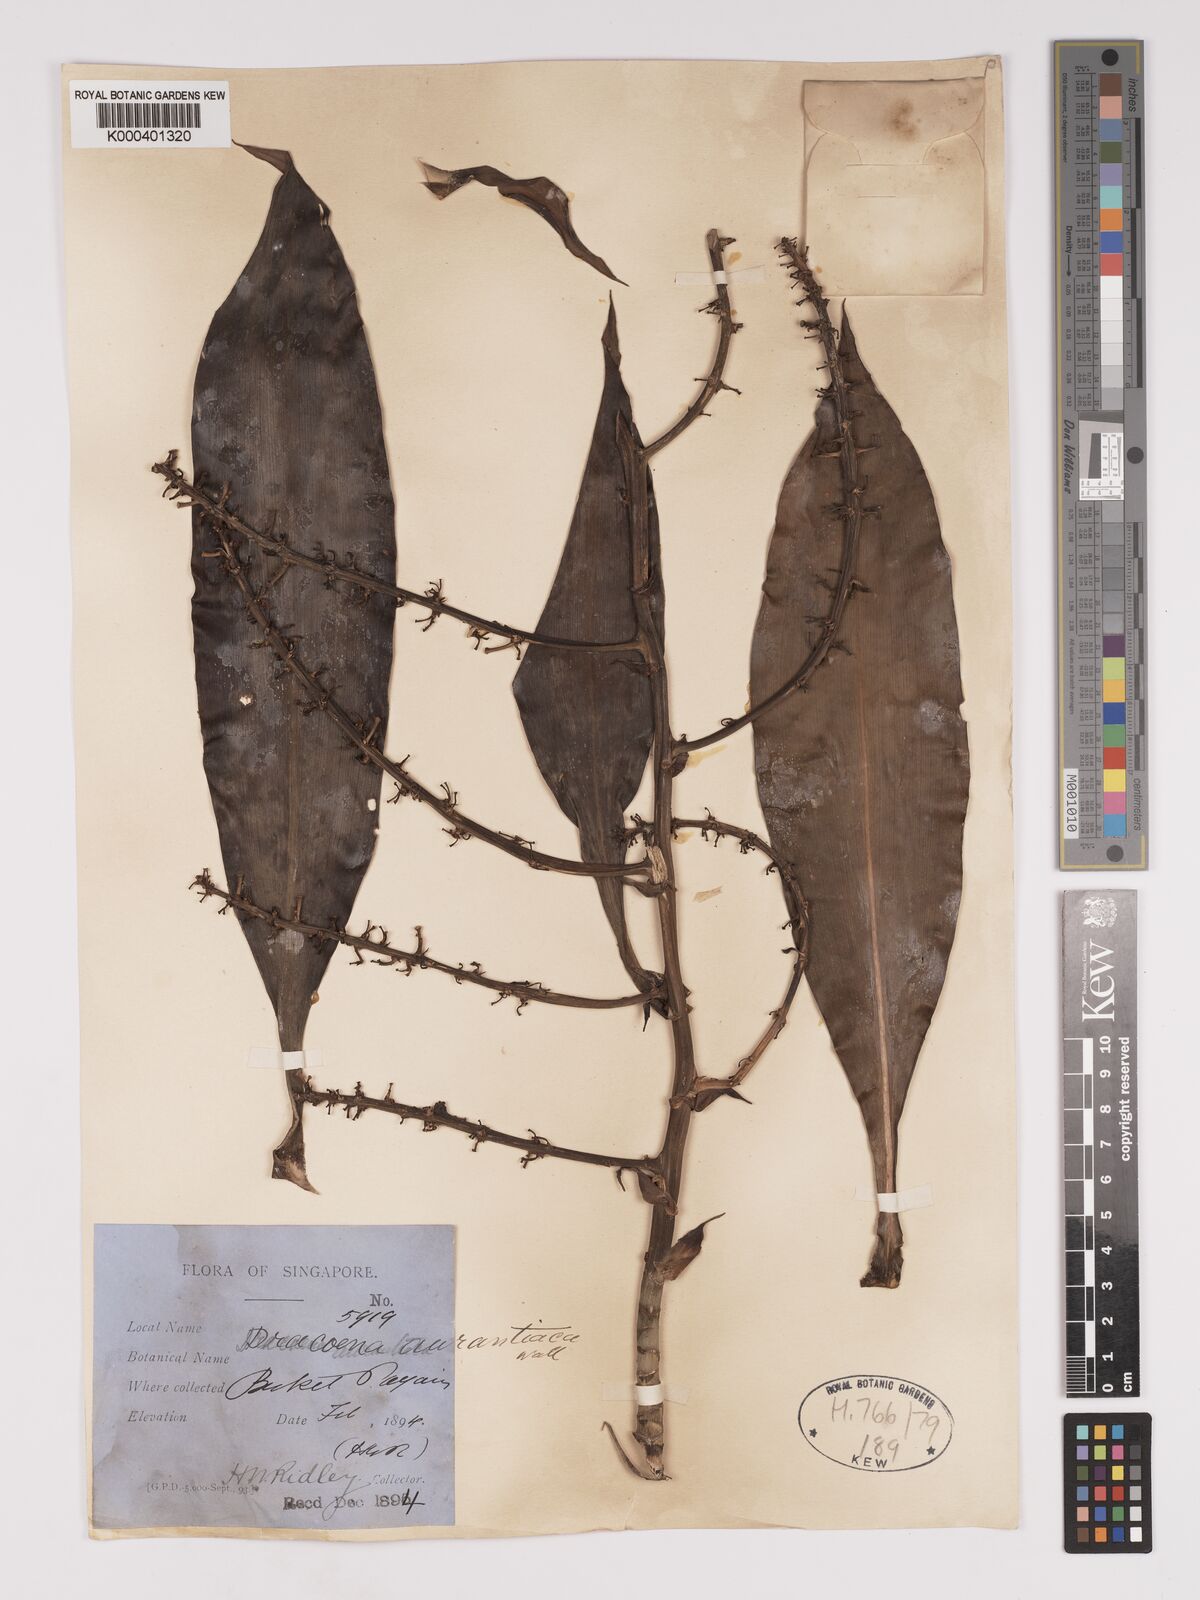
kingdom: Plantae
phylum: Tracheophyta
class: Liliopsida
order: Asparagales
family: Asparagaceae
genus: Dracaena
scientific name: Dracaena
